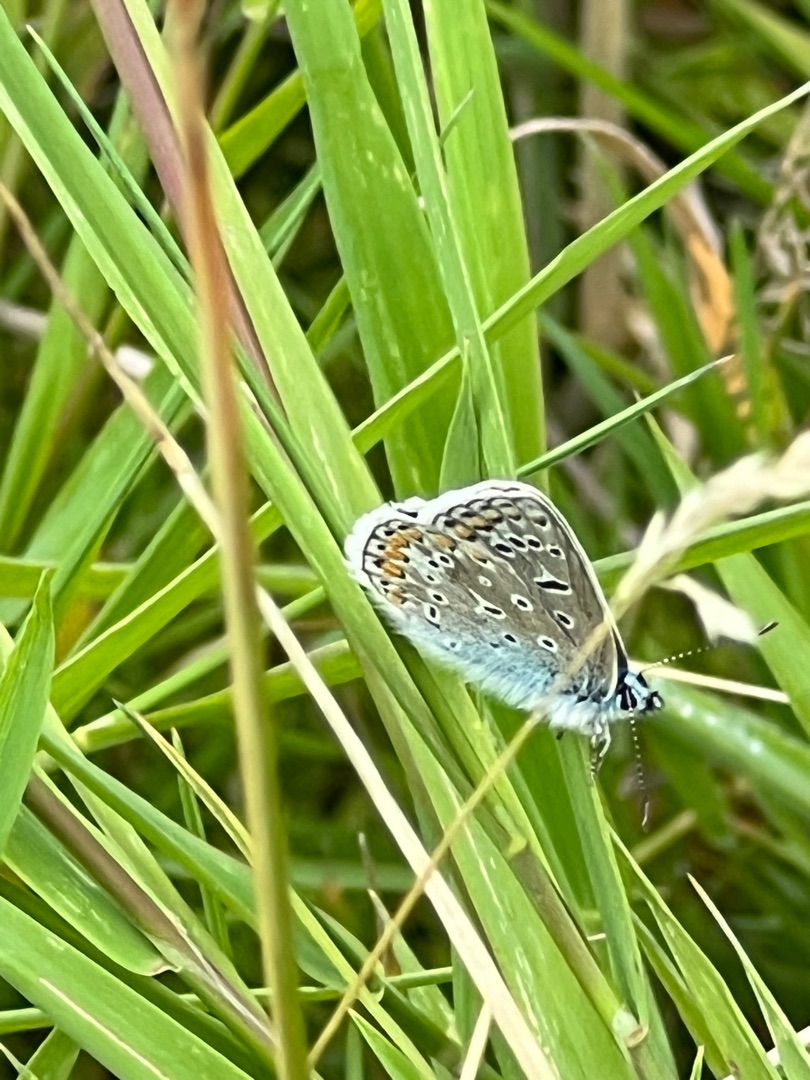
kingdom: Animalia
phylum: Arthropoda
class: Insecta
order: Lepidoptera
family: Lycaenidae
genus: Polyommatus
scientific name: Polyommatus icarus
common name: Almindelig blåfugl
